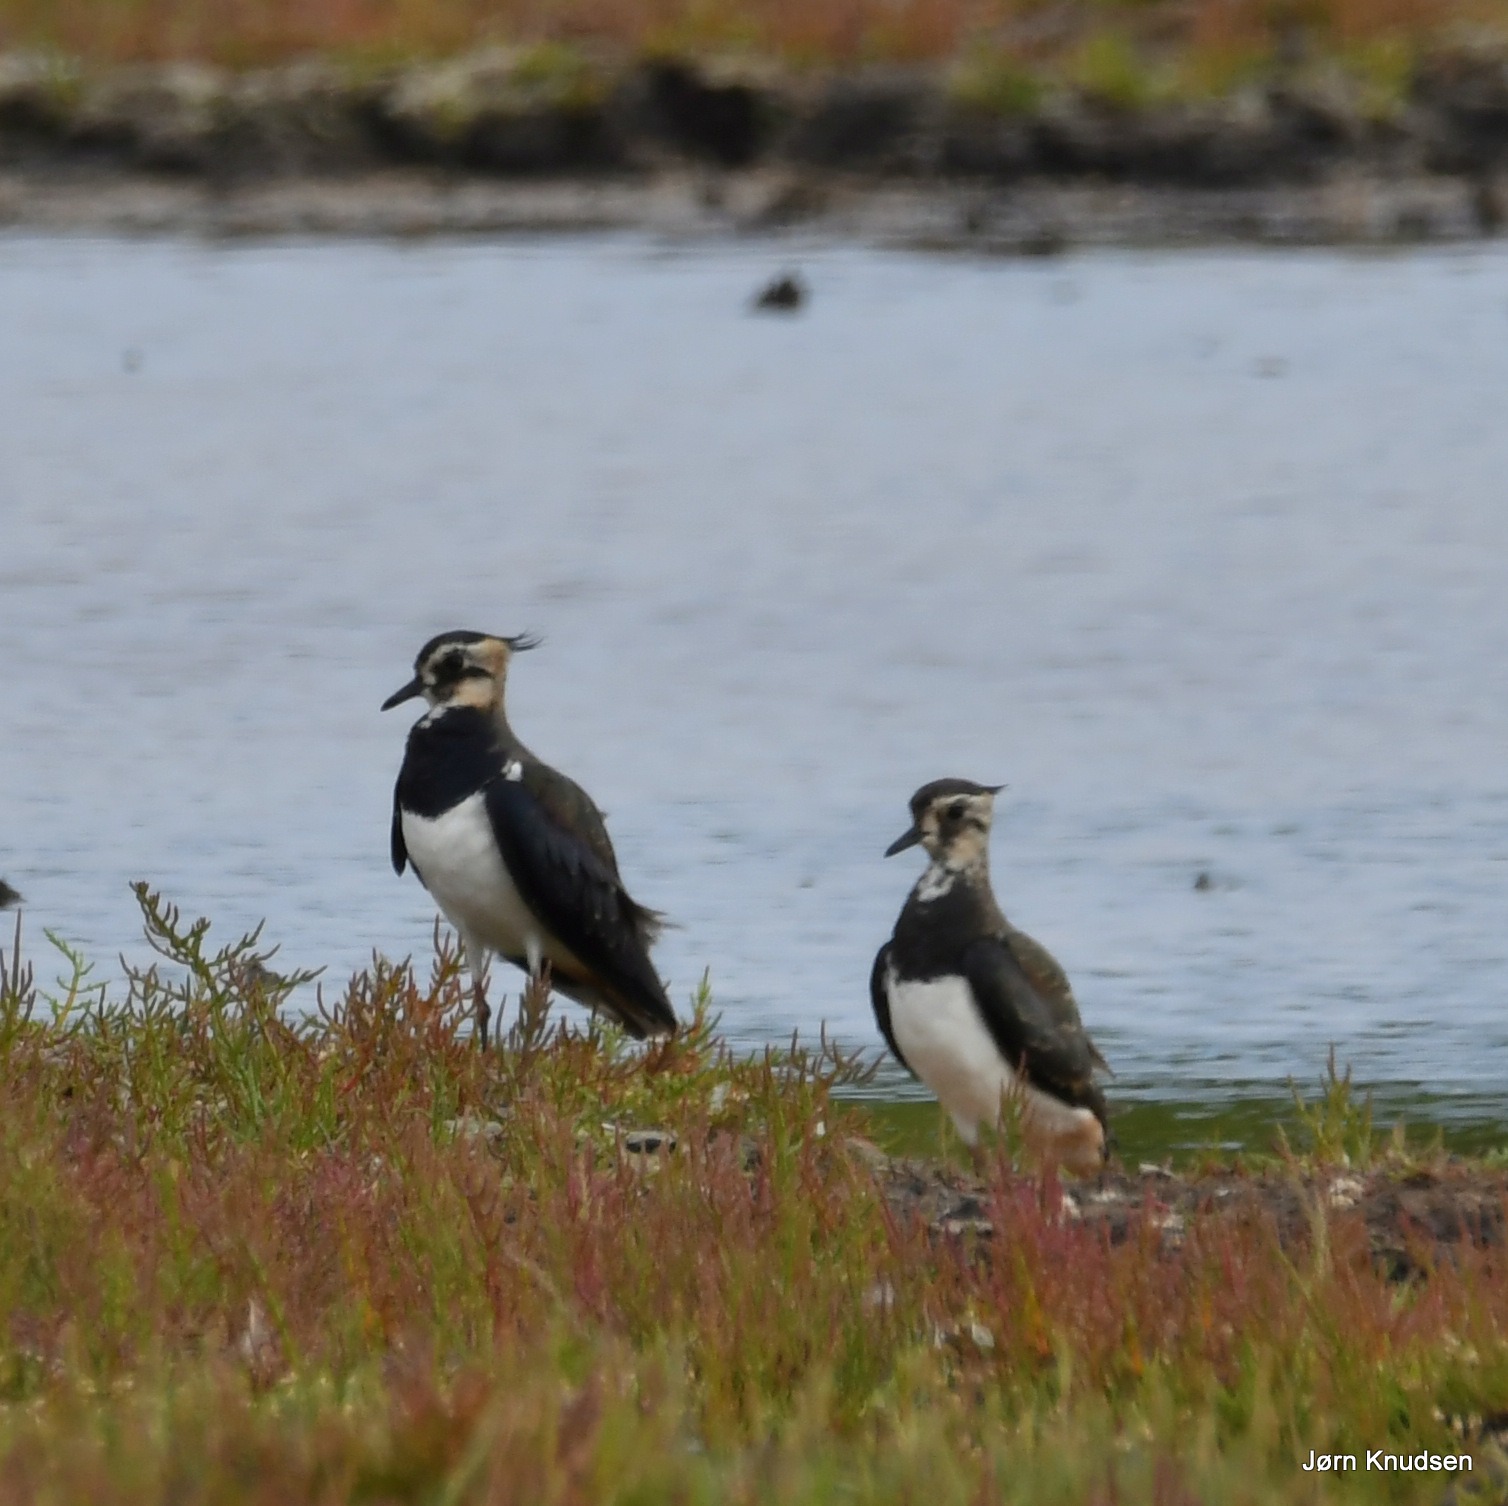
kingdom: Animalia
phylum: Chordata
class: Aves
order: Charadriiformes
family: Charadriidae
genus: Vanellus
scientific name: Vanellus vanellus
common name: Vibe
